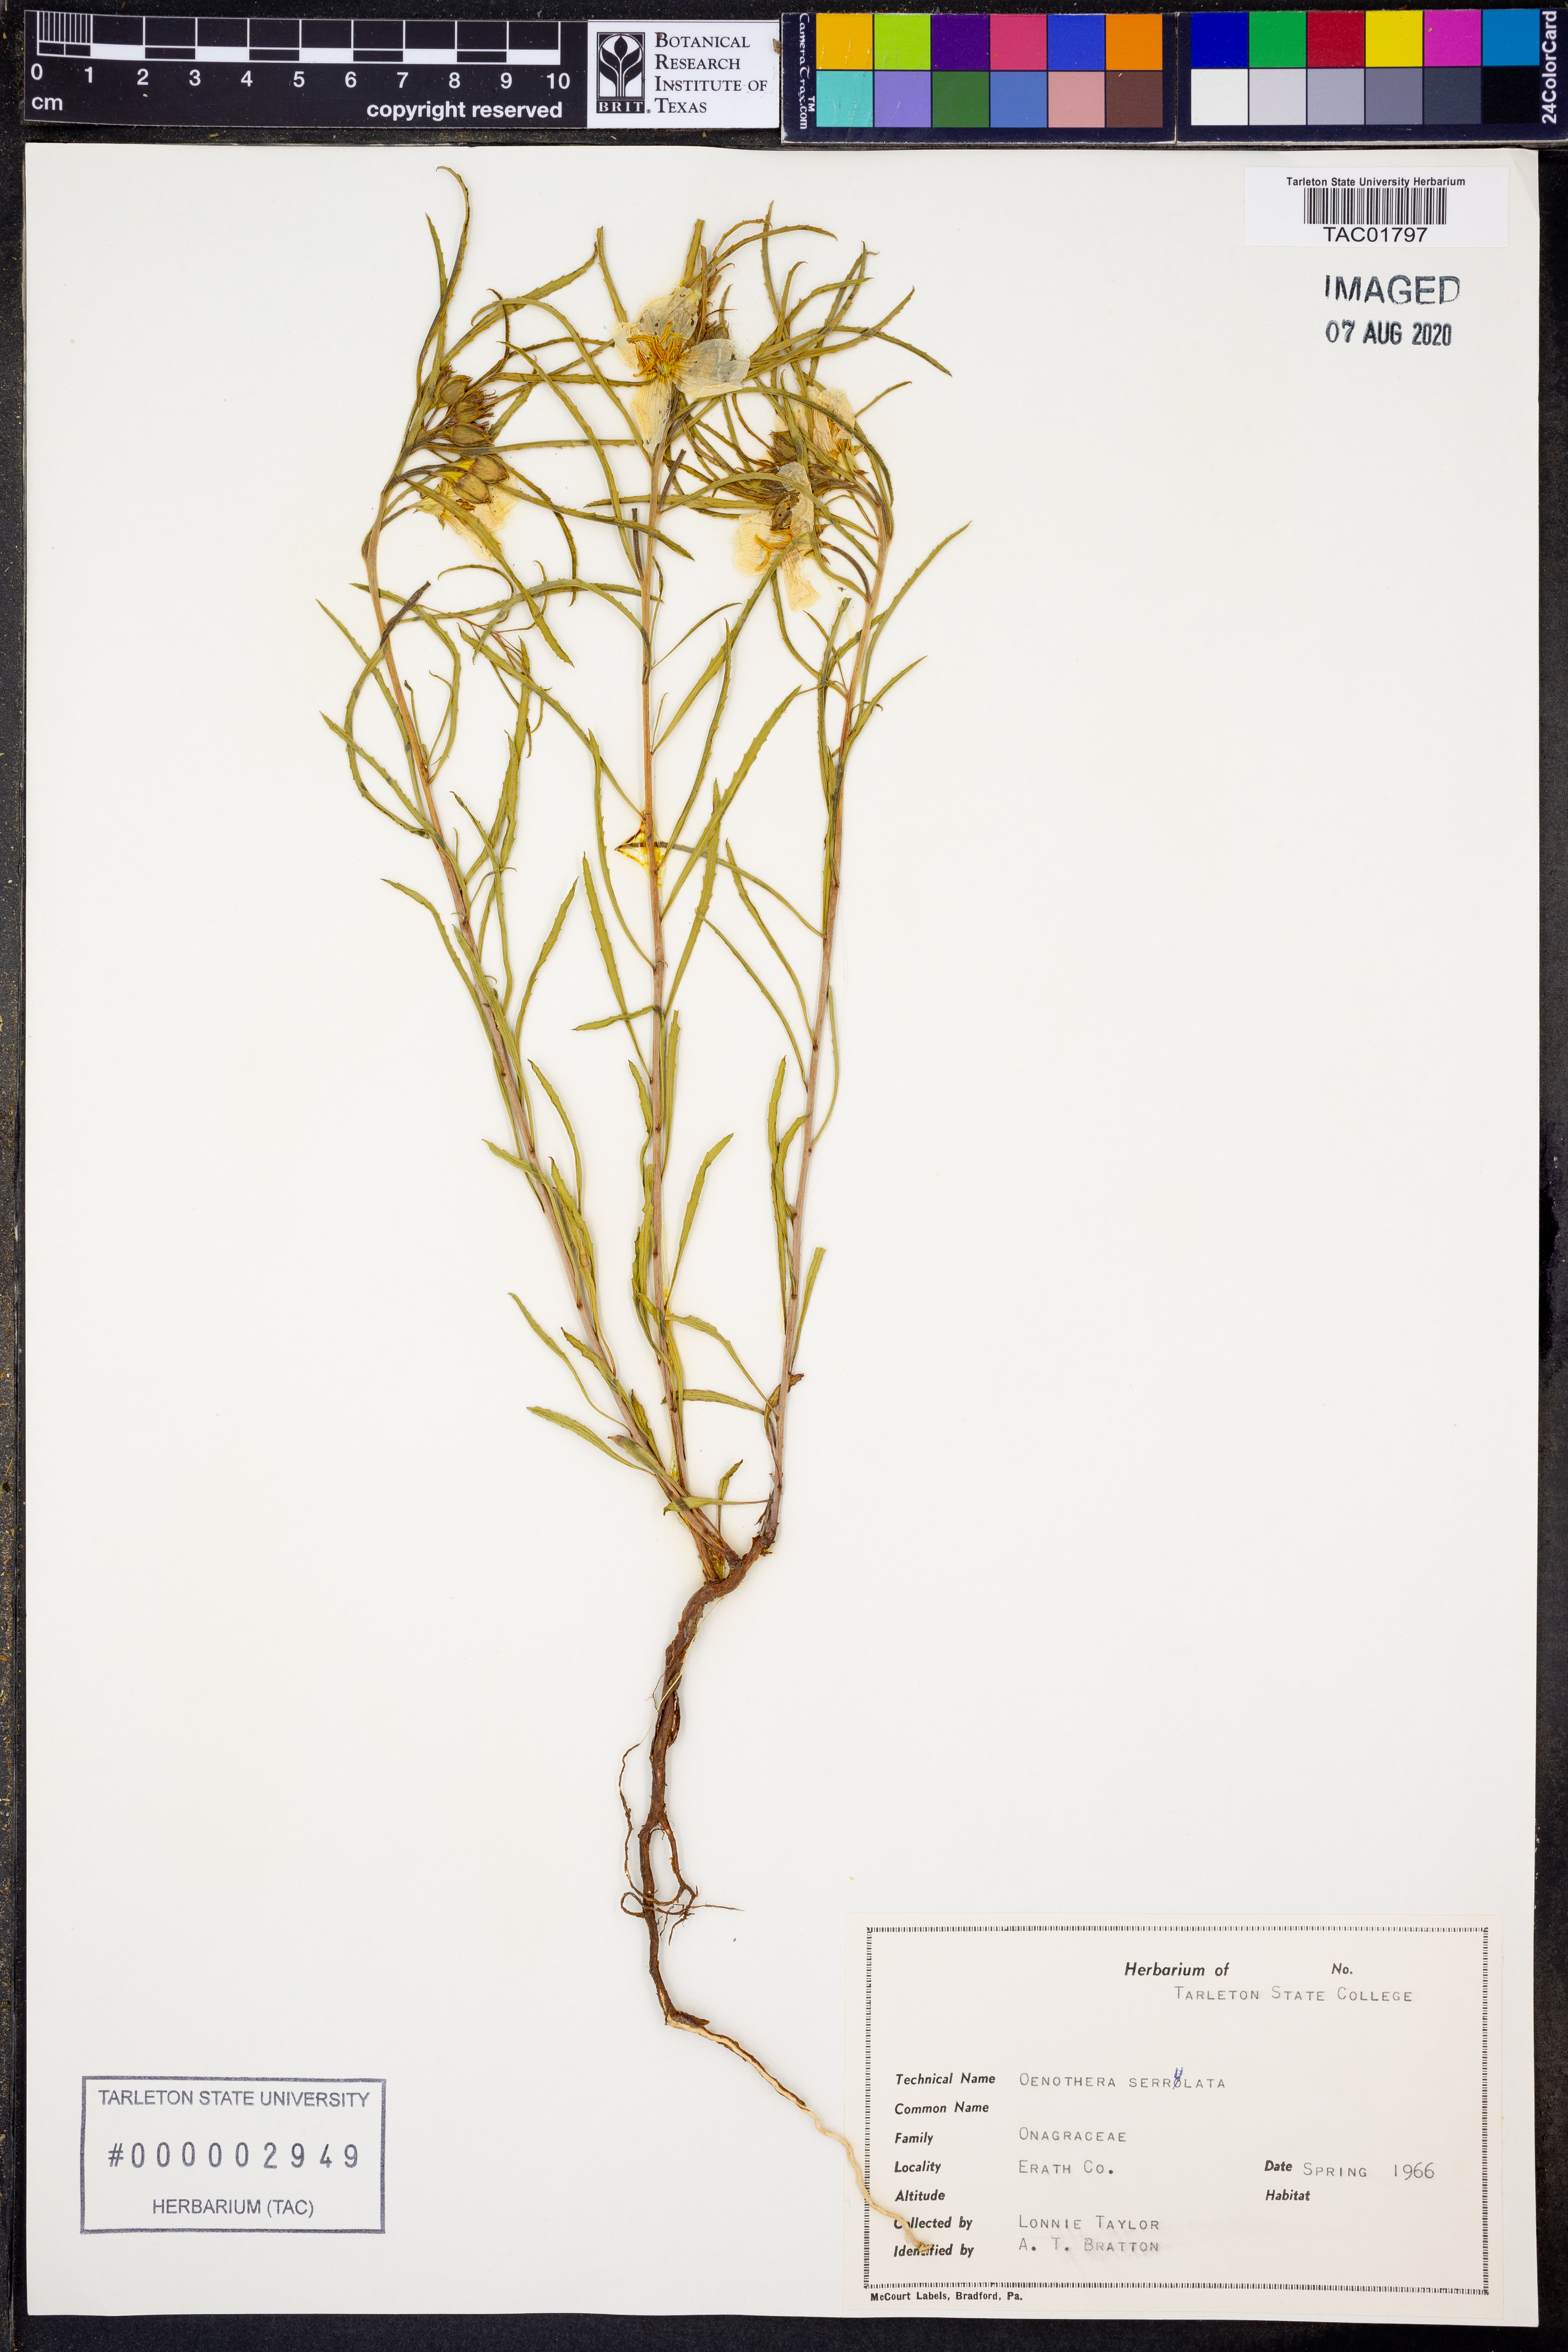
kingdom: Plantae
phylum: Tracheophyta
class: Magnoliopsida
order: Myrtales
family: Onagraceae
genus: Oenothera
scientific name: Oenothera serrulata
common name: Half-shrub calylophus
